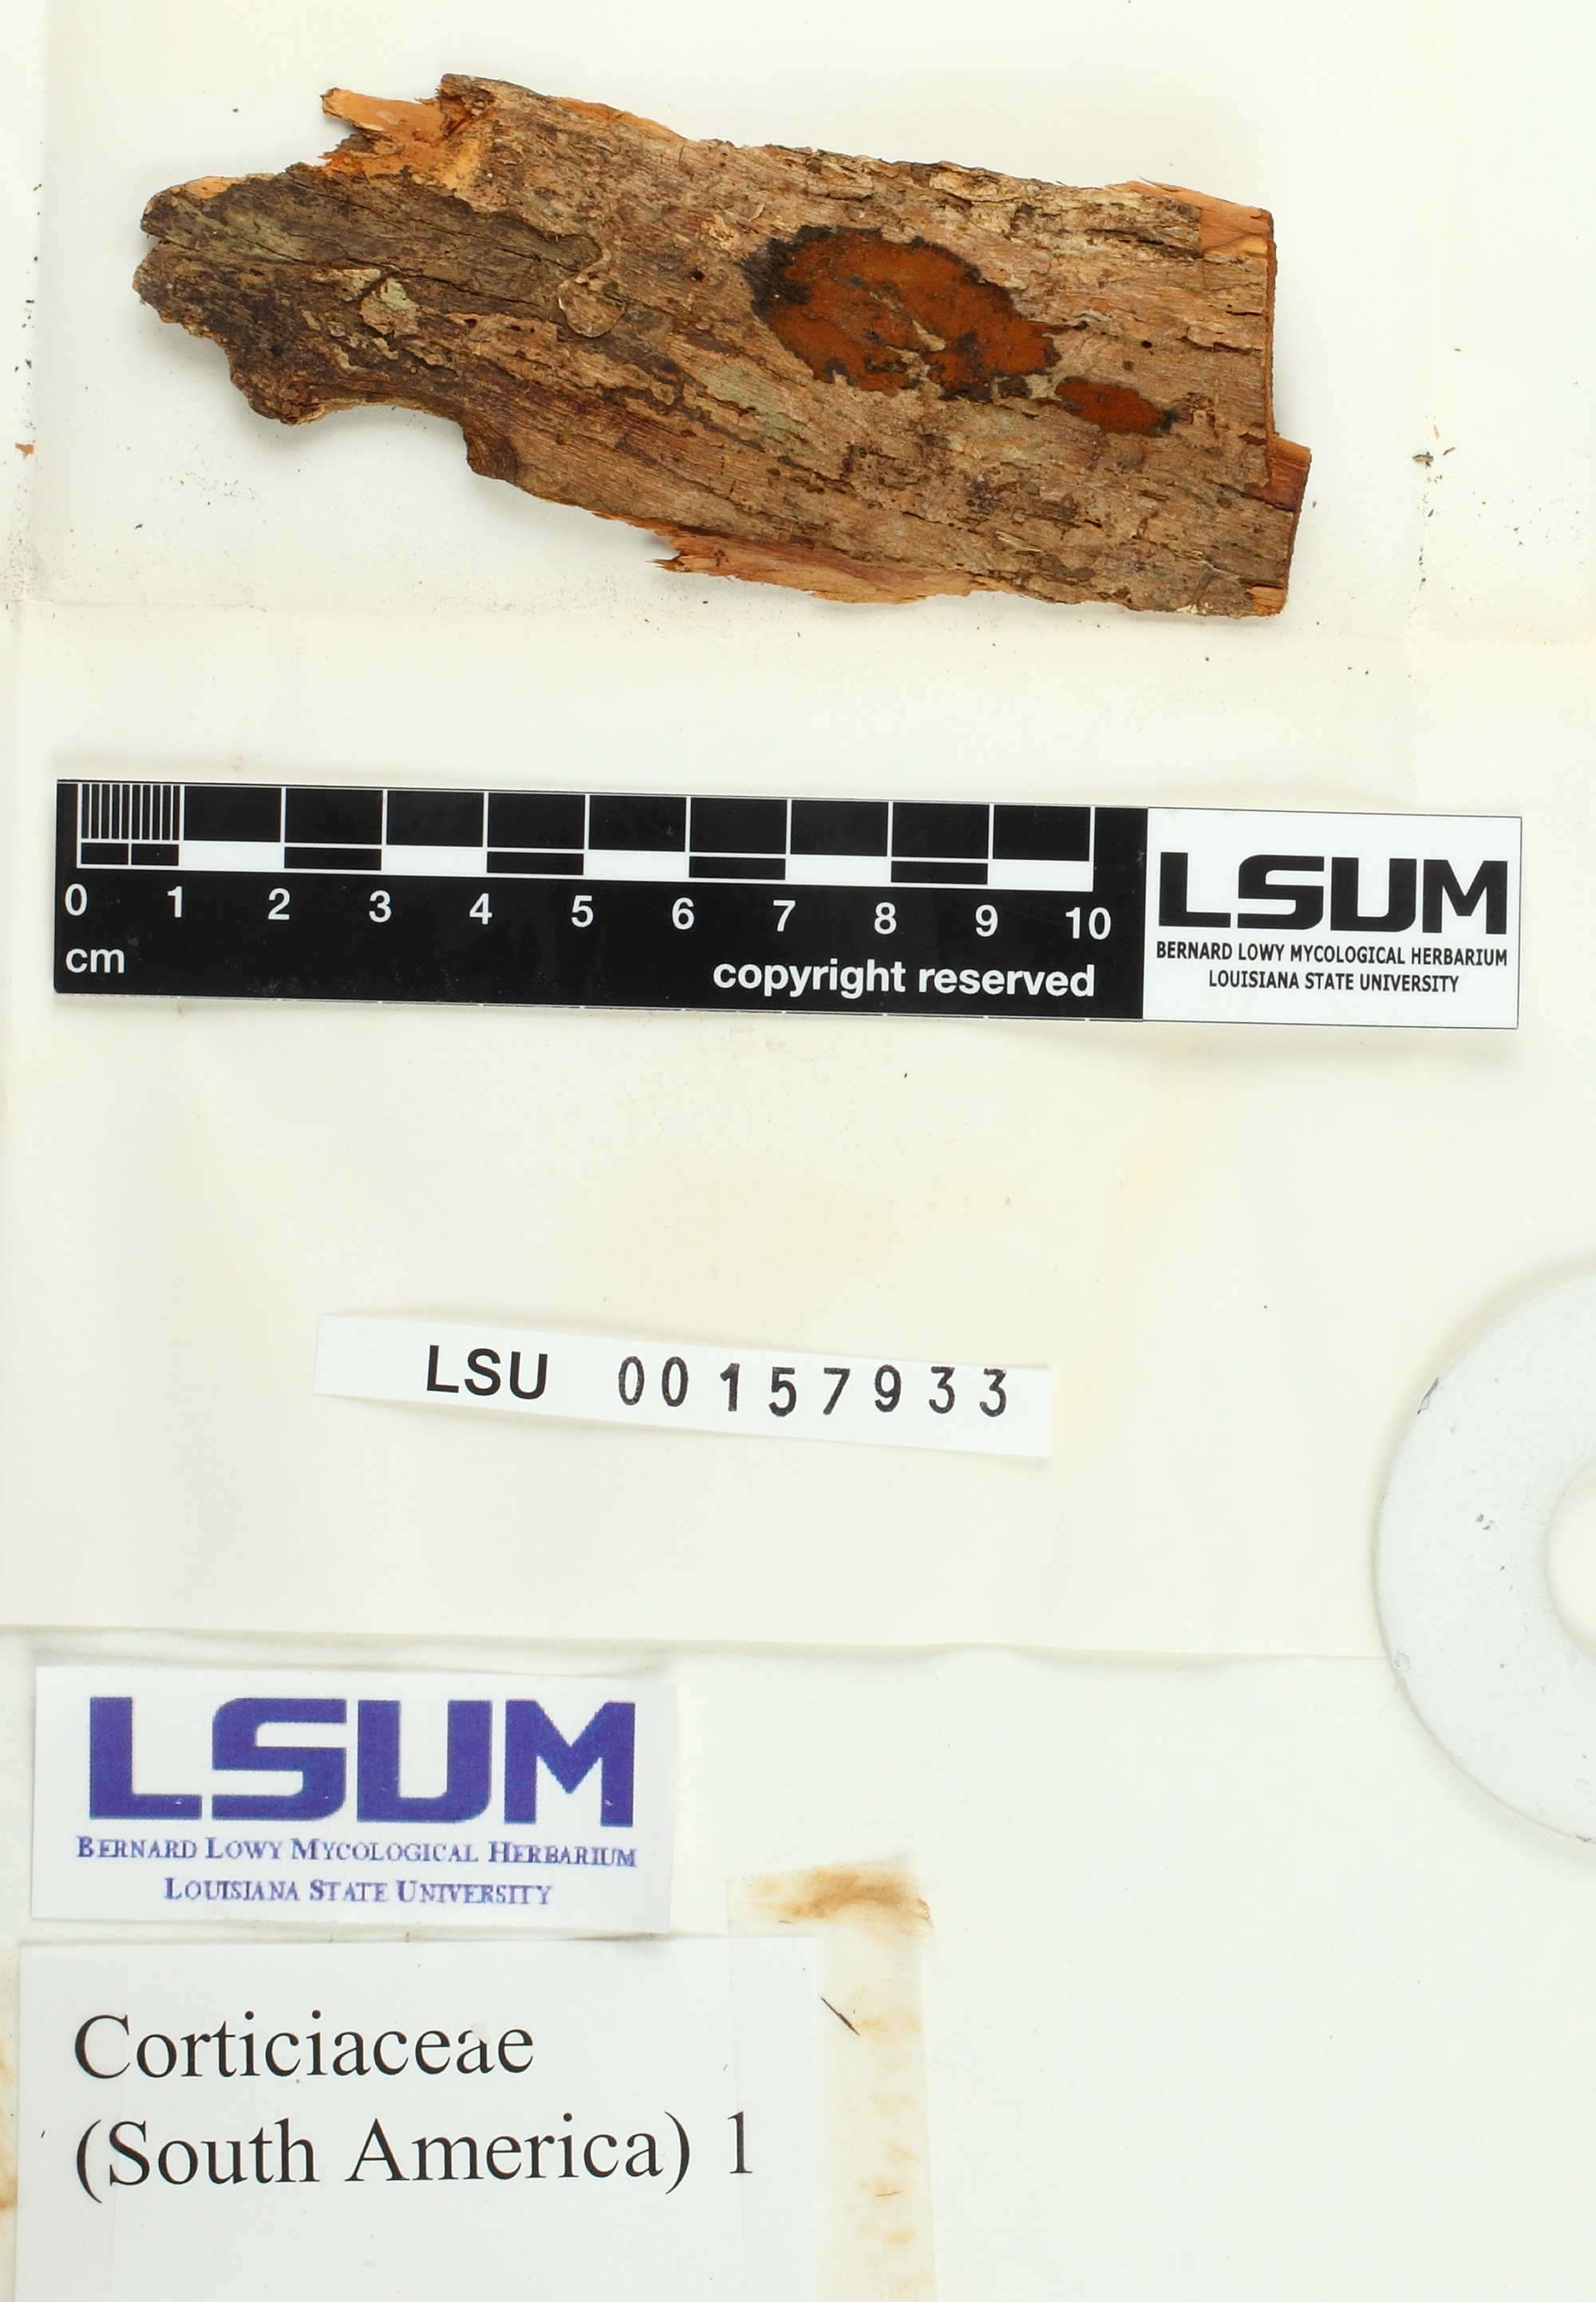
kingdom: Fungi
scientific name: Fungi
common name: Fungi
